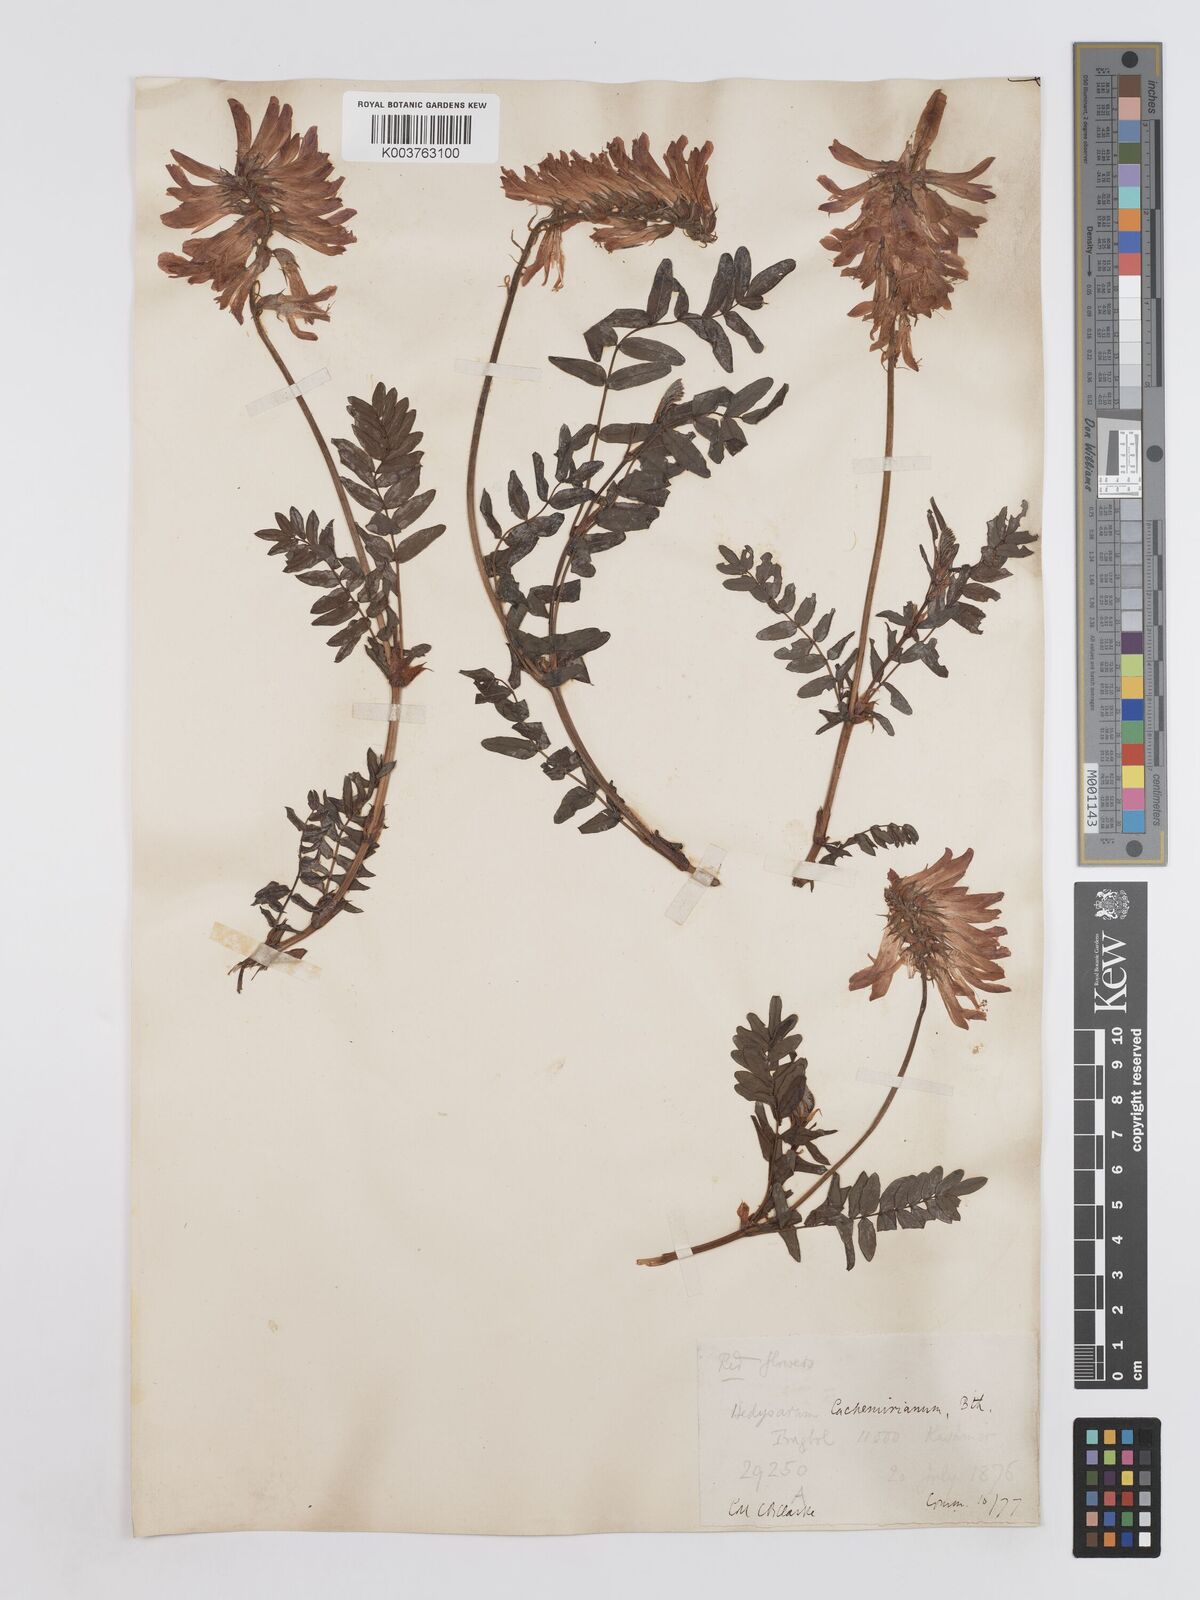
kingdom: Plantae
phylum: Tracheophyta
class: Magnoliopsida
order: Fabales
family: Fabaceae
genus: Hedysarum
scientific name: Hedysarum cachemirianum
